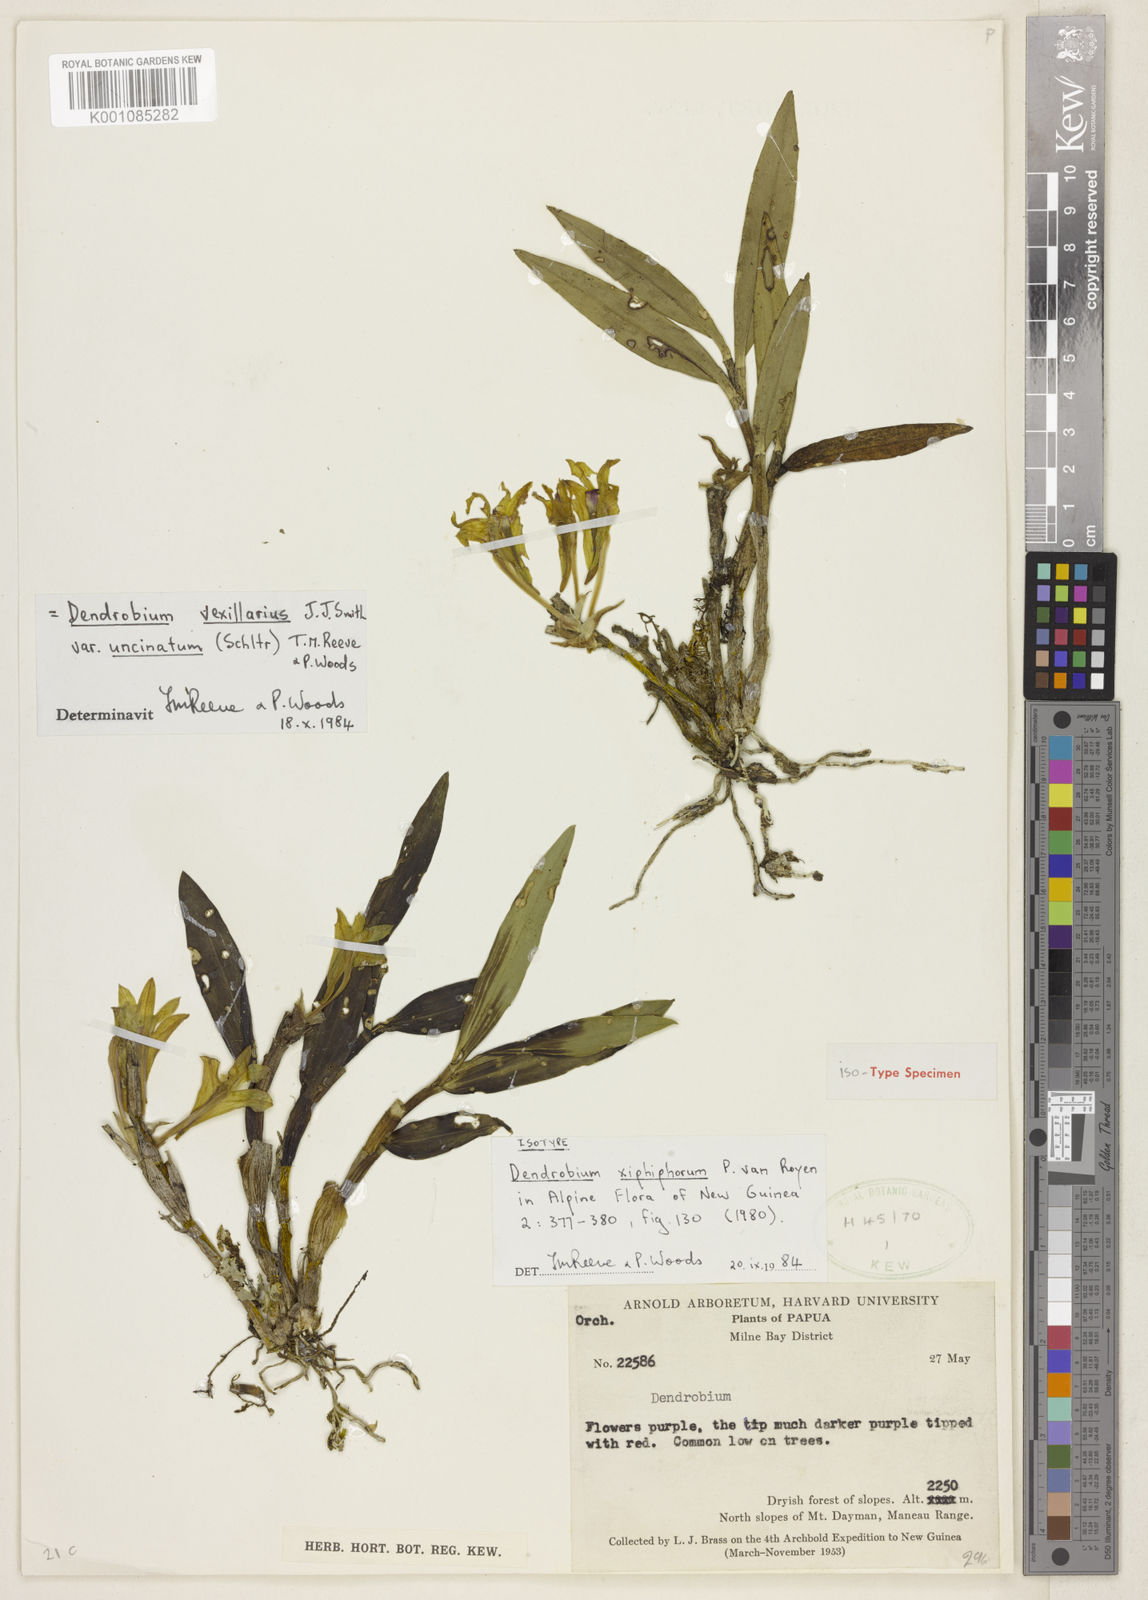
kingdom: Plantae
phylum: Tracheophyta
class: Liliopsida
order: Asparagales
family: Orchidaceae
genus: Dendrobium
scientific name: Dendrobium vexillarius
